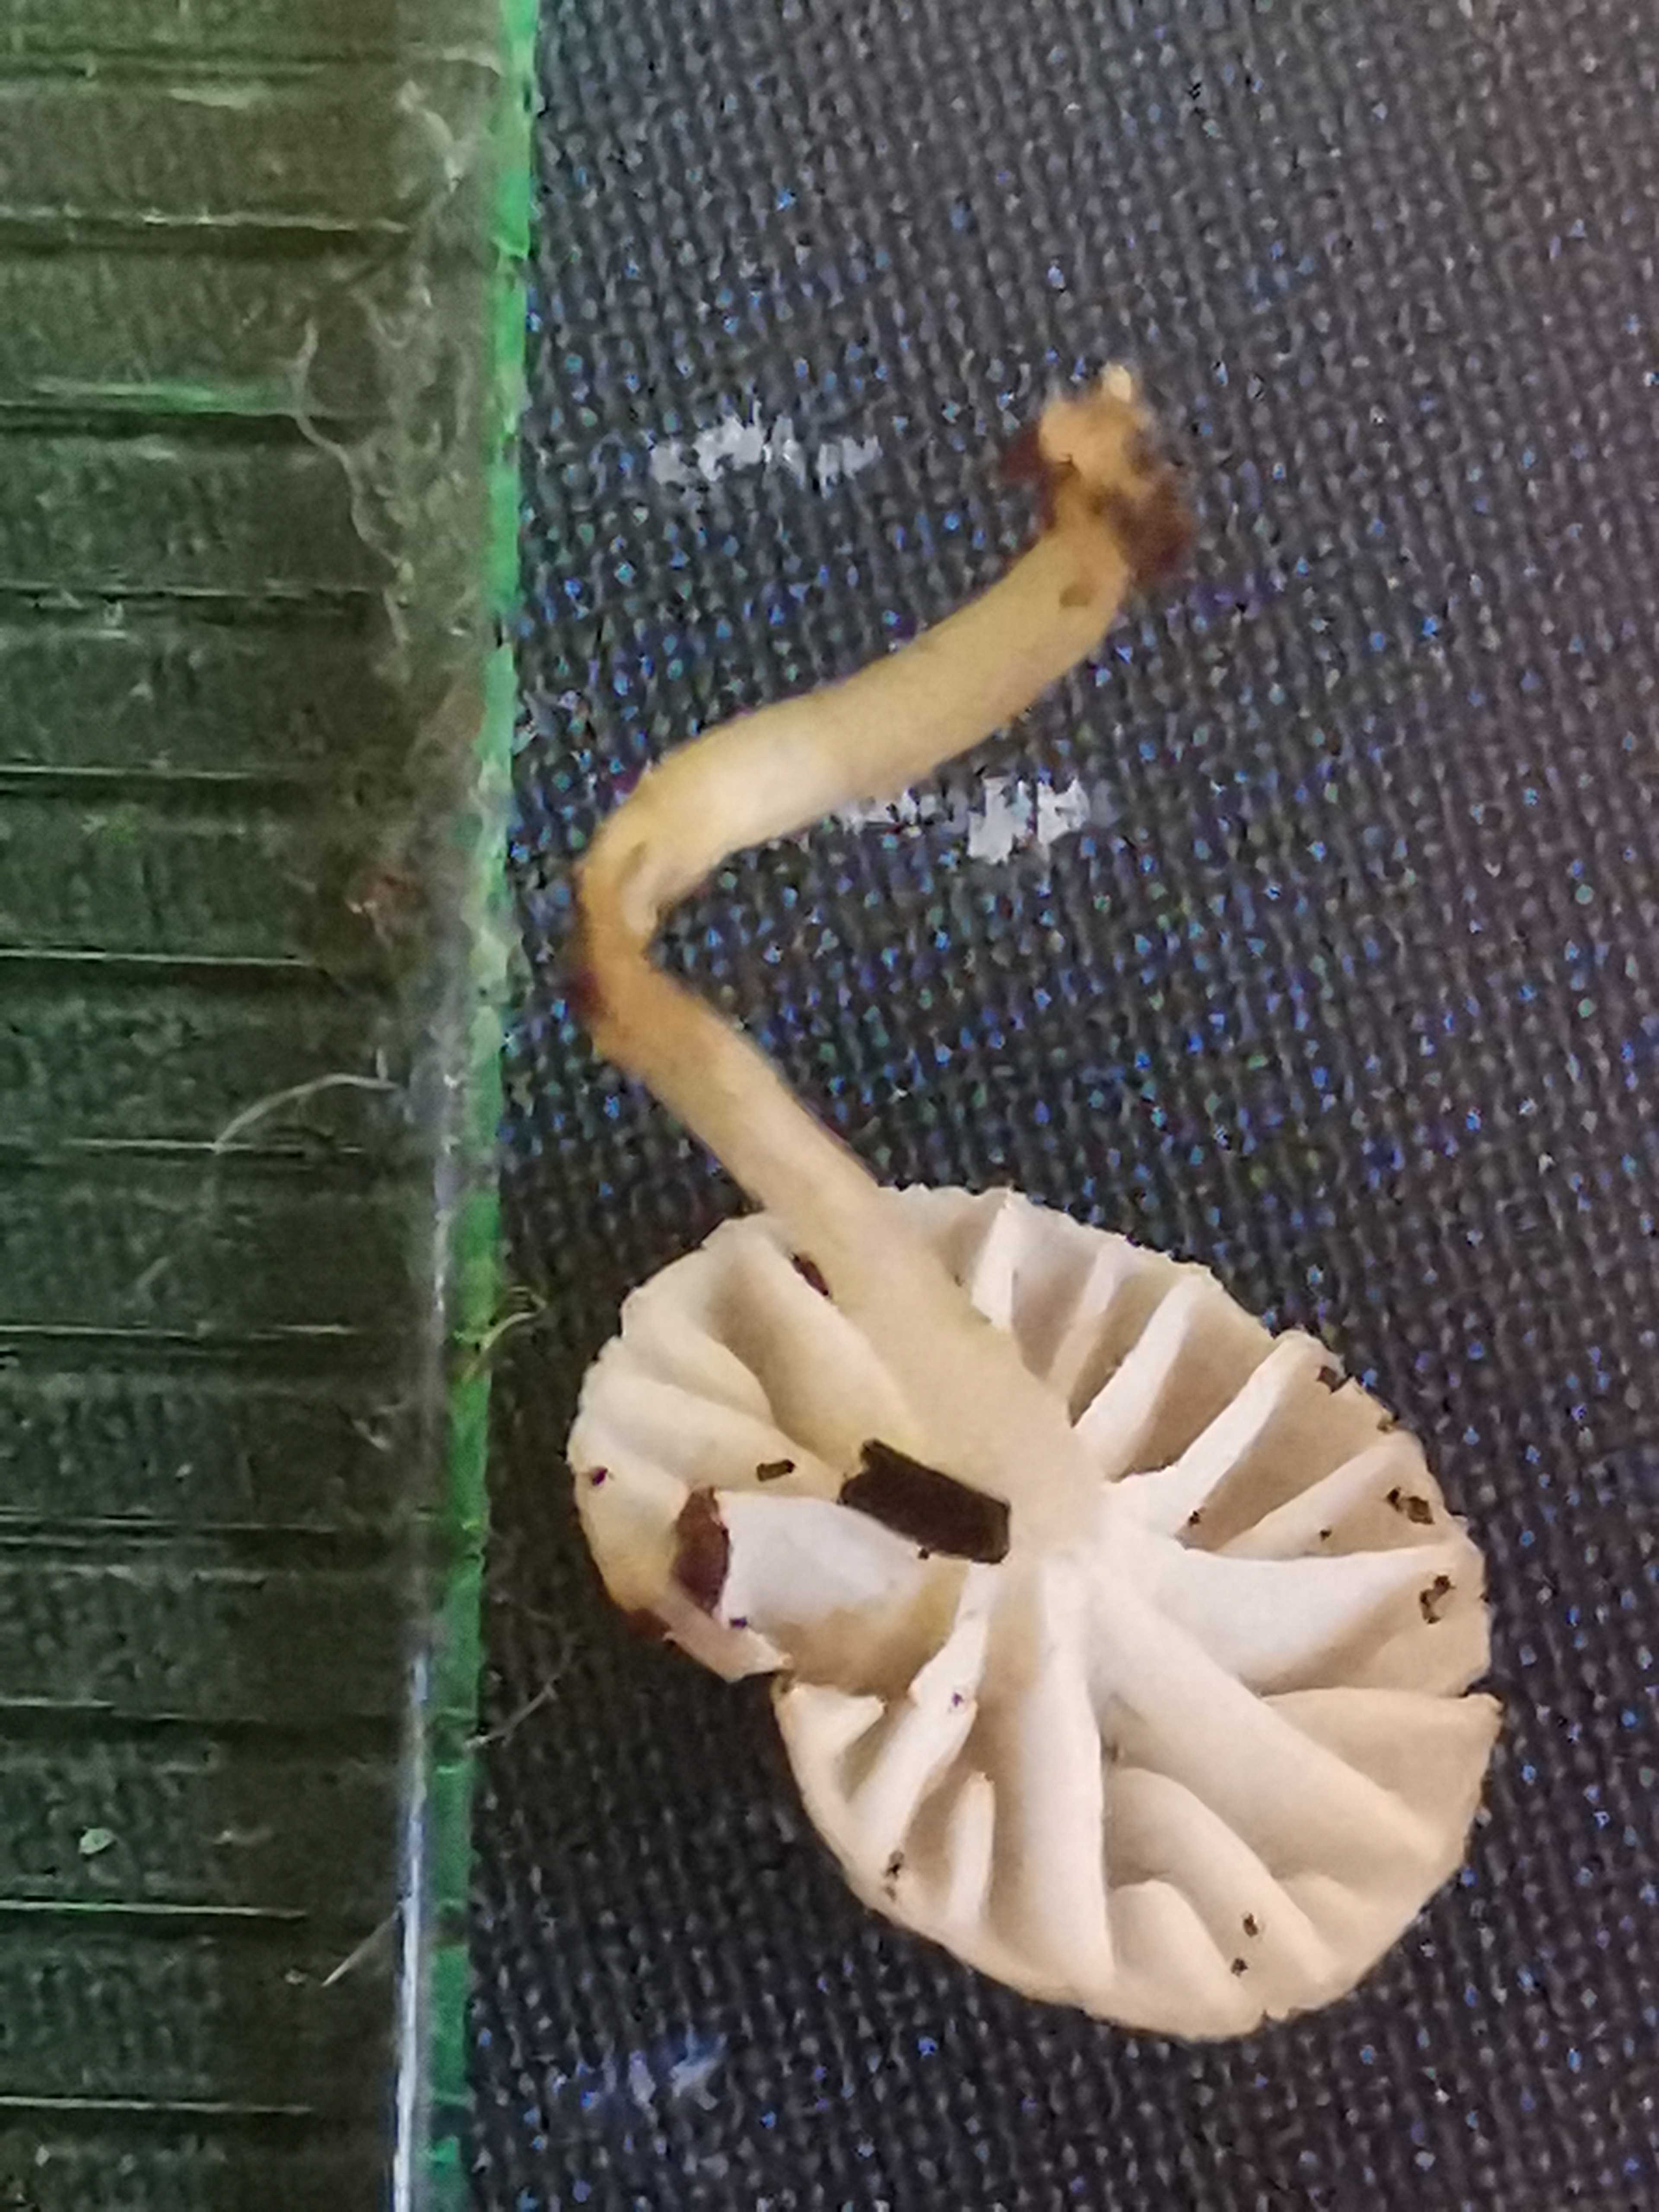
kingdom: Fungi
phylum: Basidiomycota
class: Agaricomycetes
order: Agaricales
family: Porotheleaceae
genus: Phloeomana
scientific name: Phloeomana speirea
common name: kvist-huesvamp
